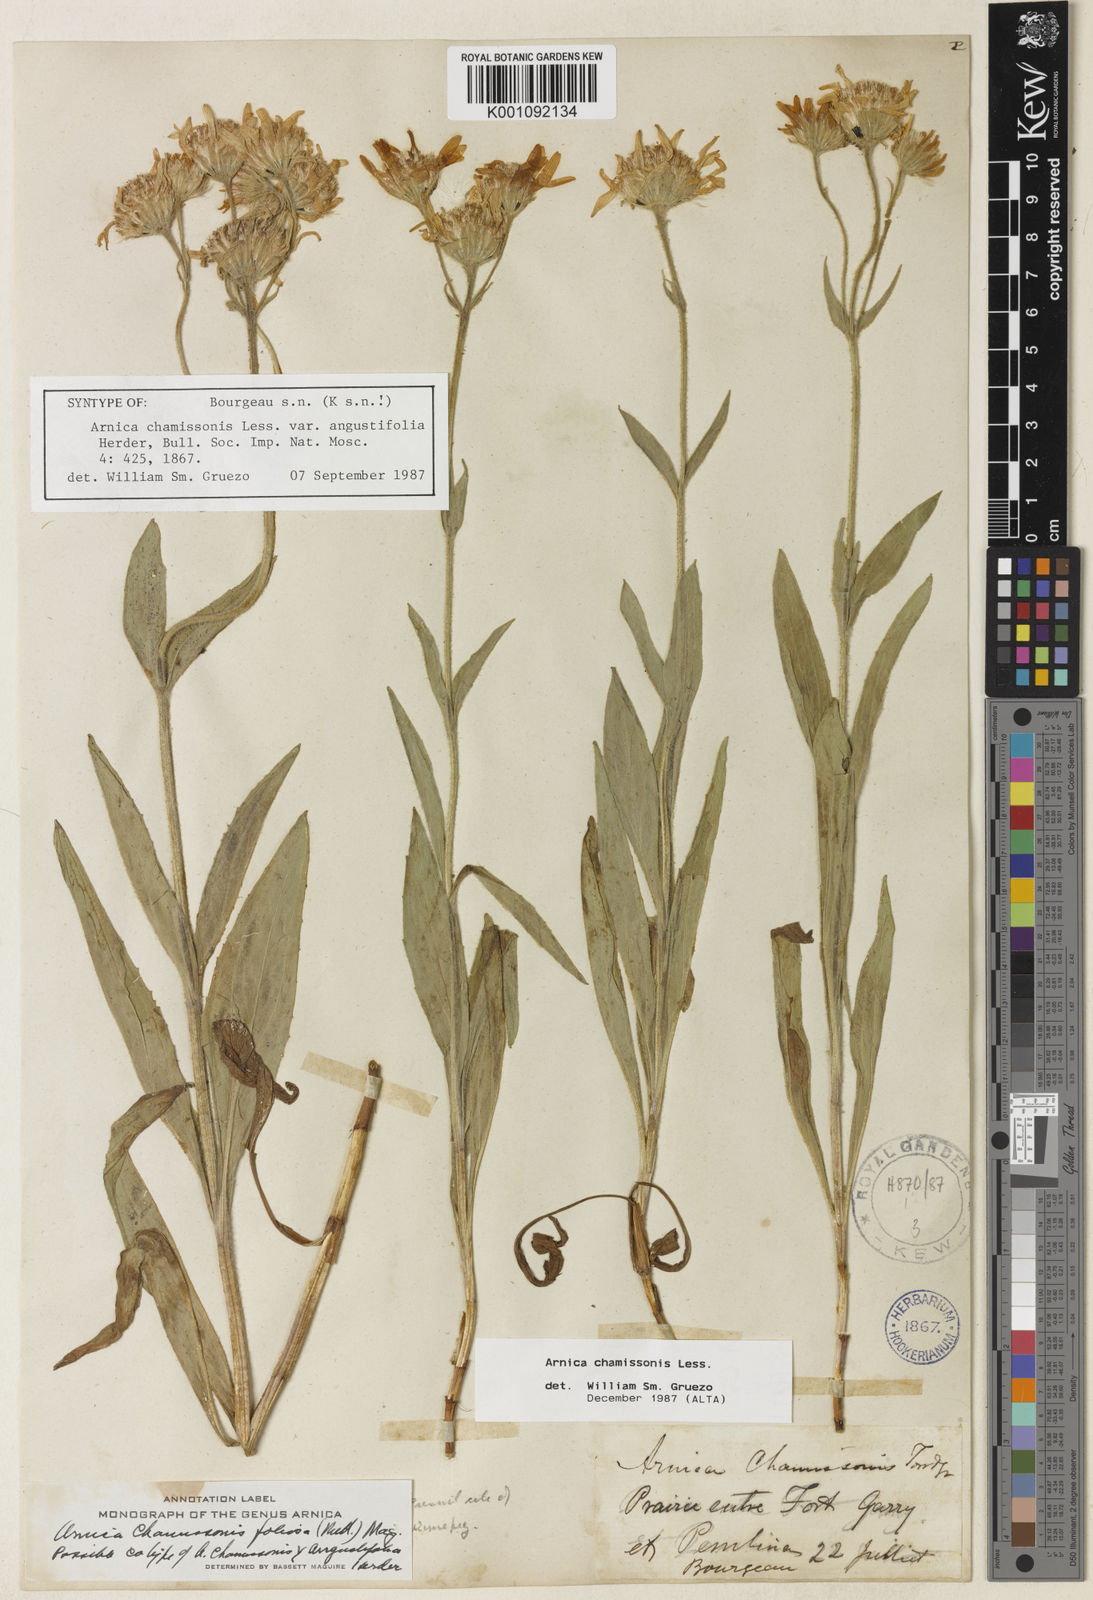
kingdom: Plantae
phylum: Tracheophyta
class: Magnoliopsida
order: Asterales
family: Asteraceae
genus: Arnica
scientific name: Arnica chamissonis
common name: Leafy arnica
